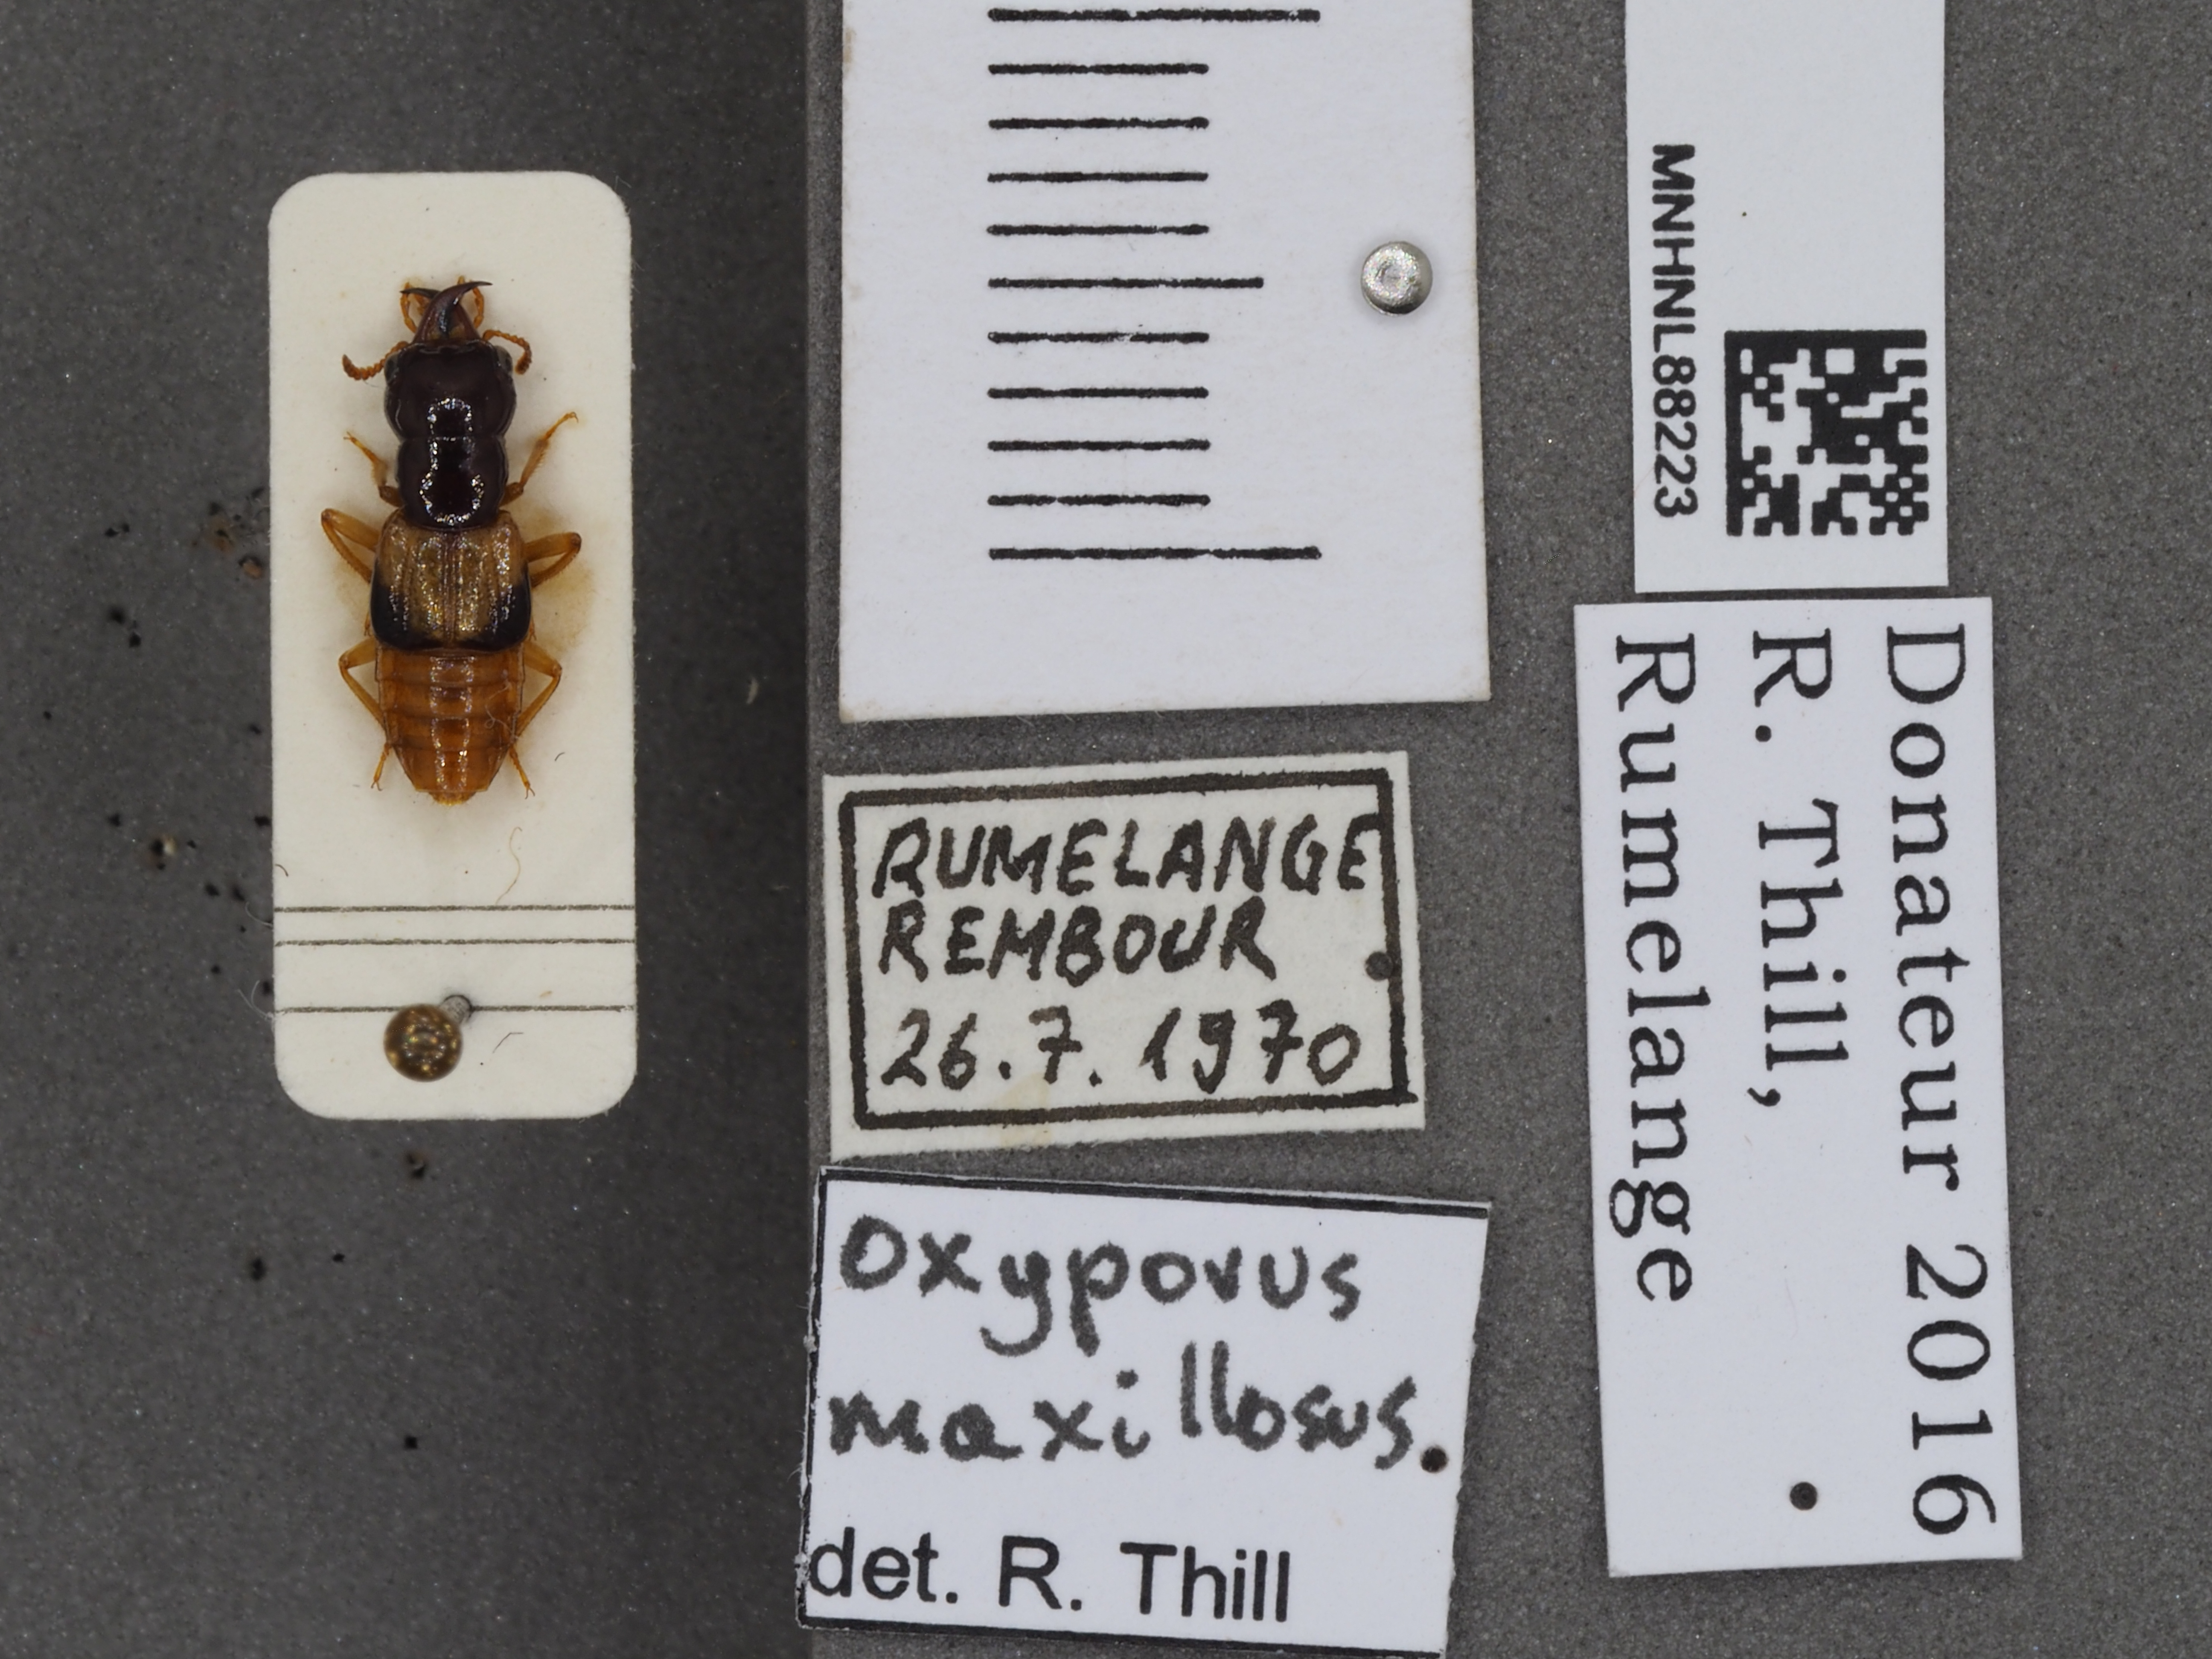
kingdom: Animalia
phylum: Arthropoda
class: Insecta
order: Coleoptera
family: Staphylinidae
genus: Oxyporus
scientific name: Oxyporus maxillosus
